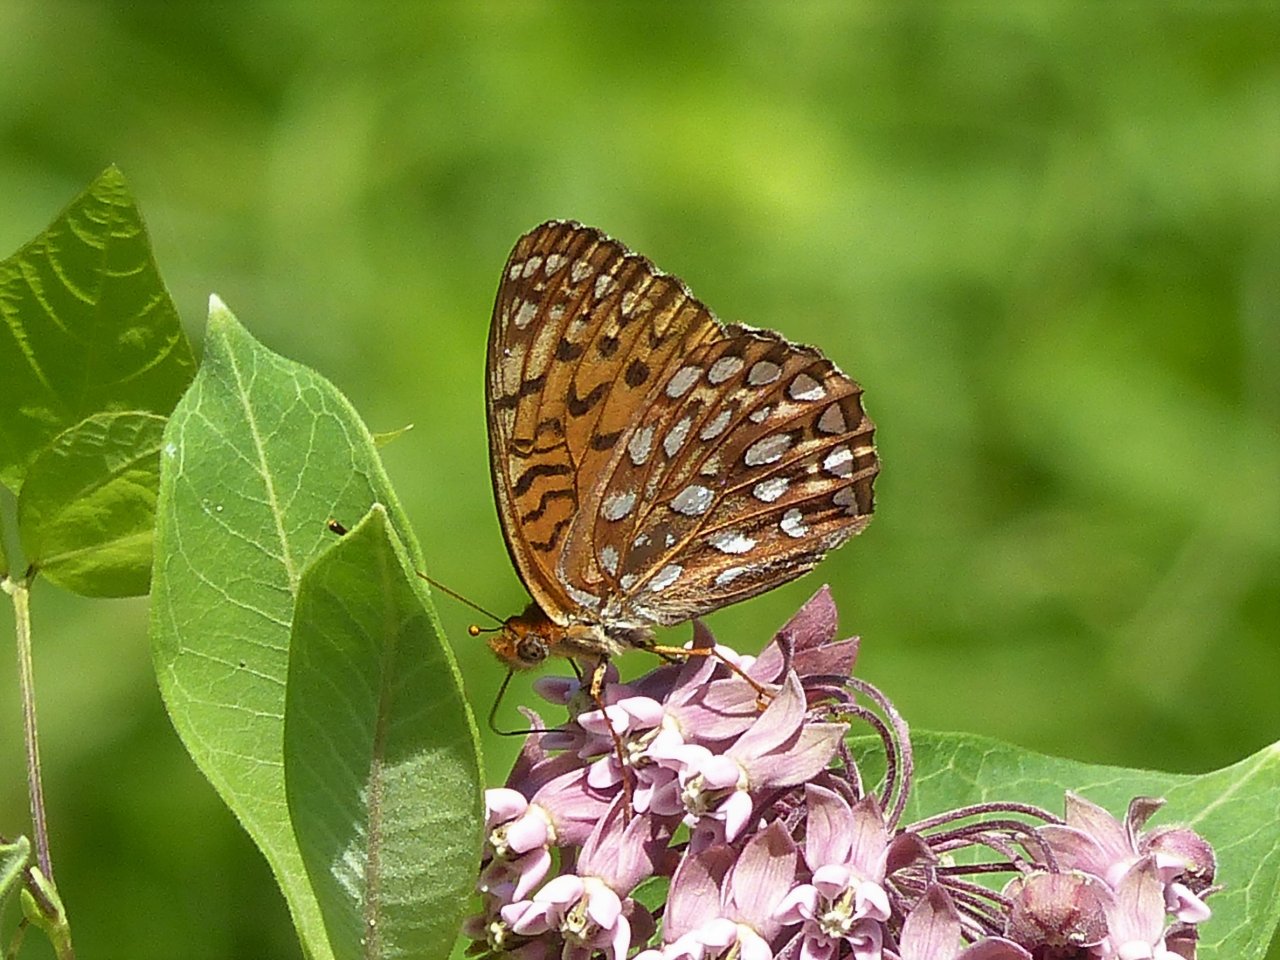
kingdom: Animalia
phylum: Arthropoda
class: Insecta
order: Lepidoptera
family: Nymphalidae
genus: Speyeria
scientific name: Speyeria atlantis
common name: Atlantis Fritillary
